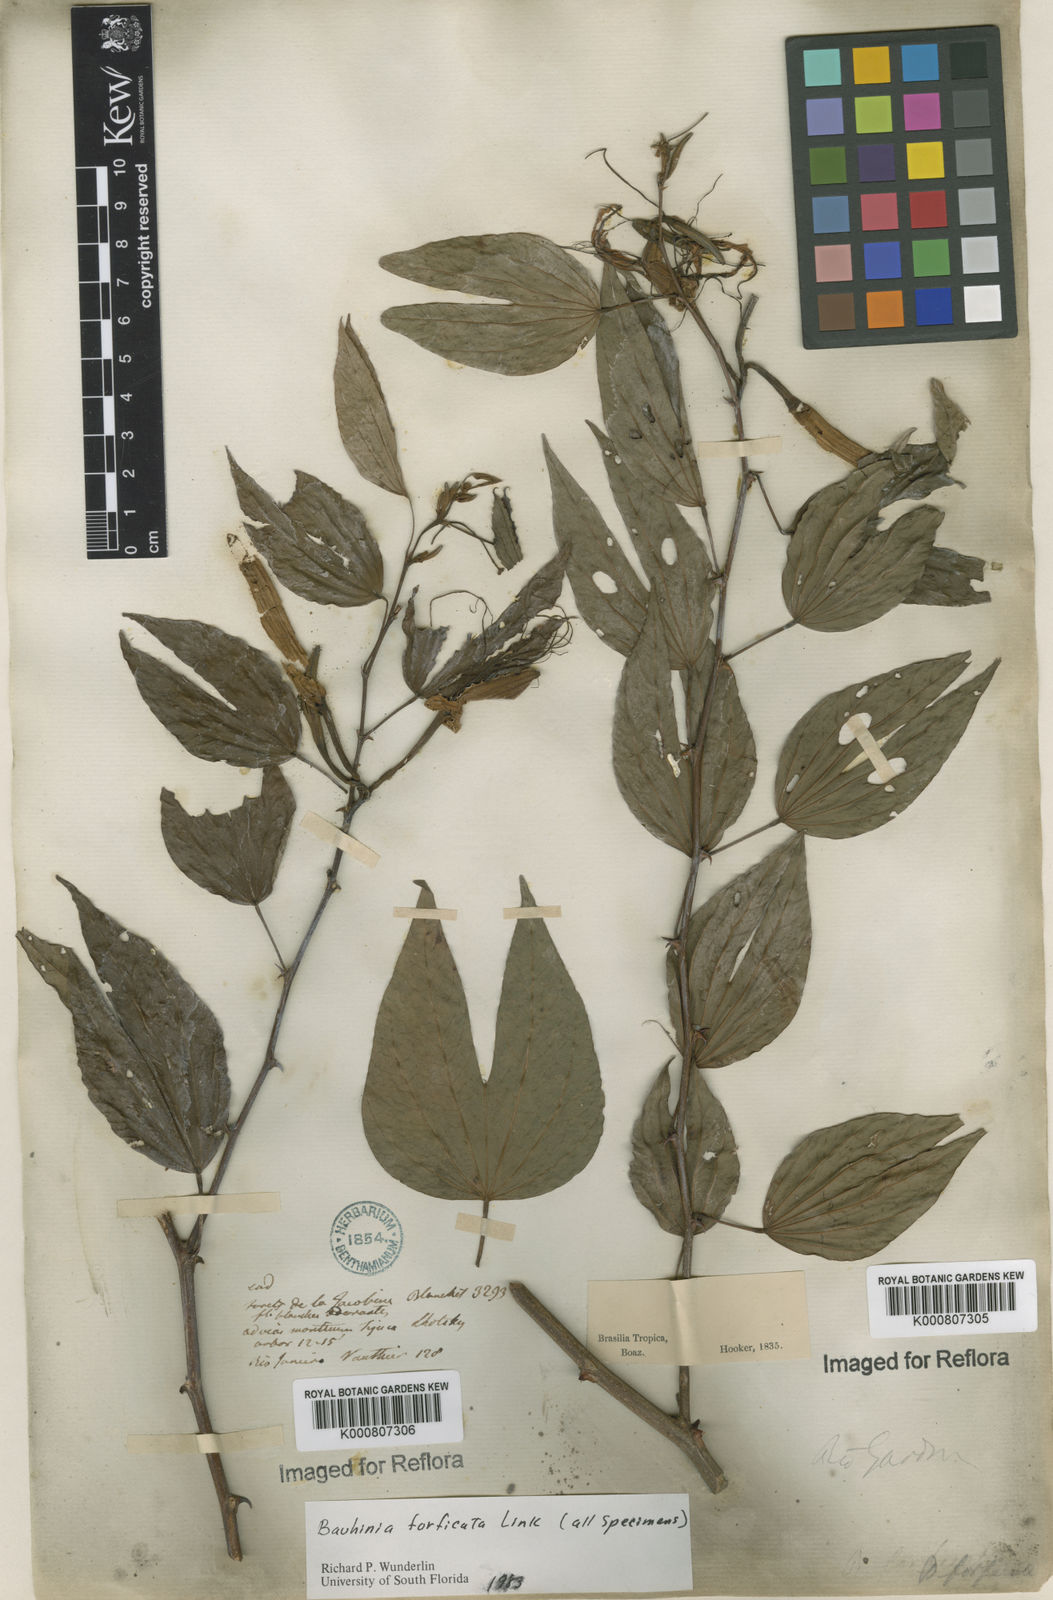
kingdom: Plantae
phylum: Tracheophyta
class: Magnoliopsida
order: Fabales
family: Fabaceae
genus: Bauhinia
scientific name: Bauhinia forficata
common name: Orchid tree
